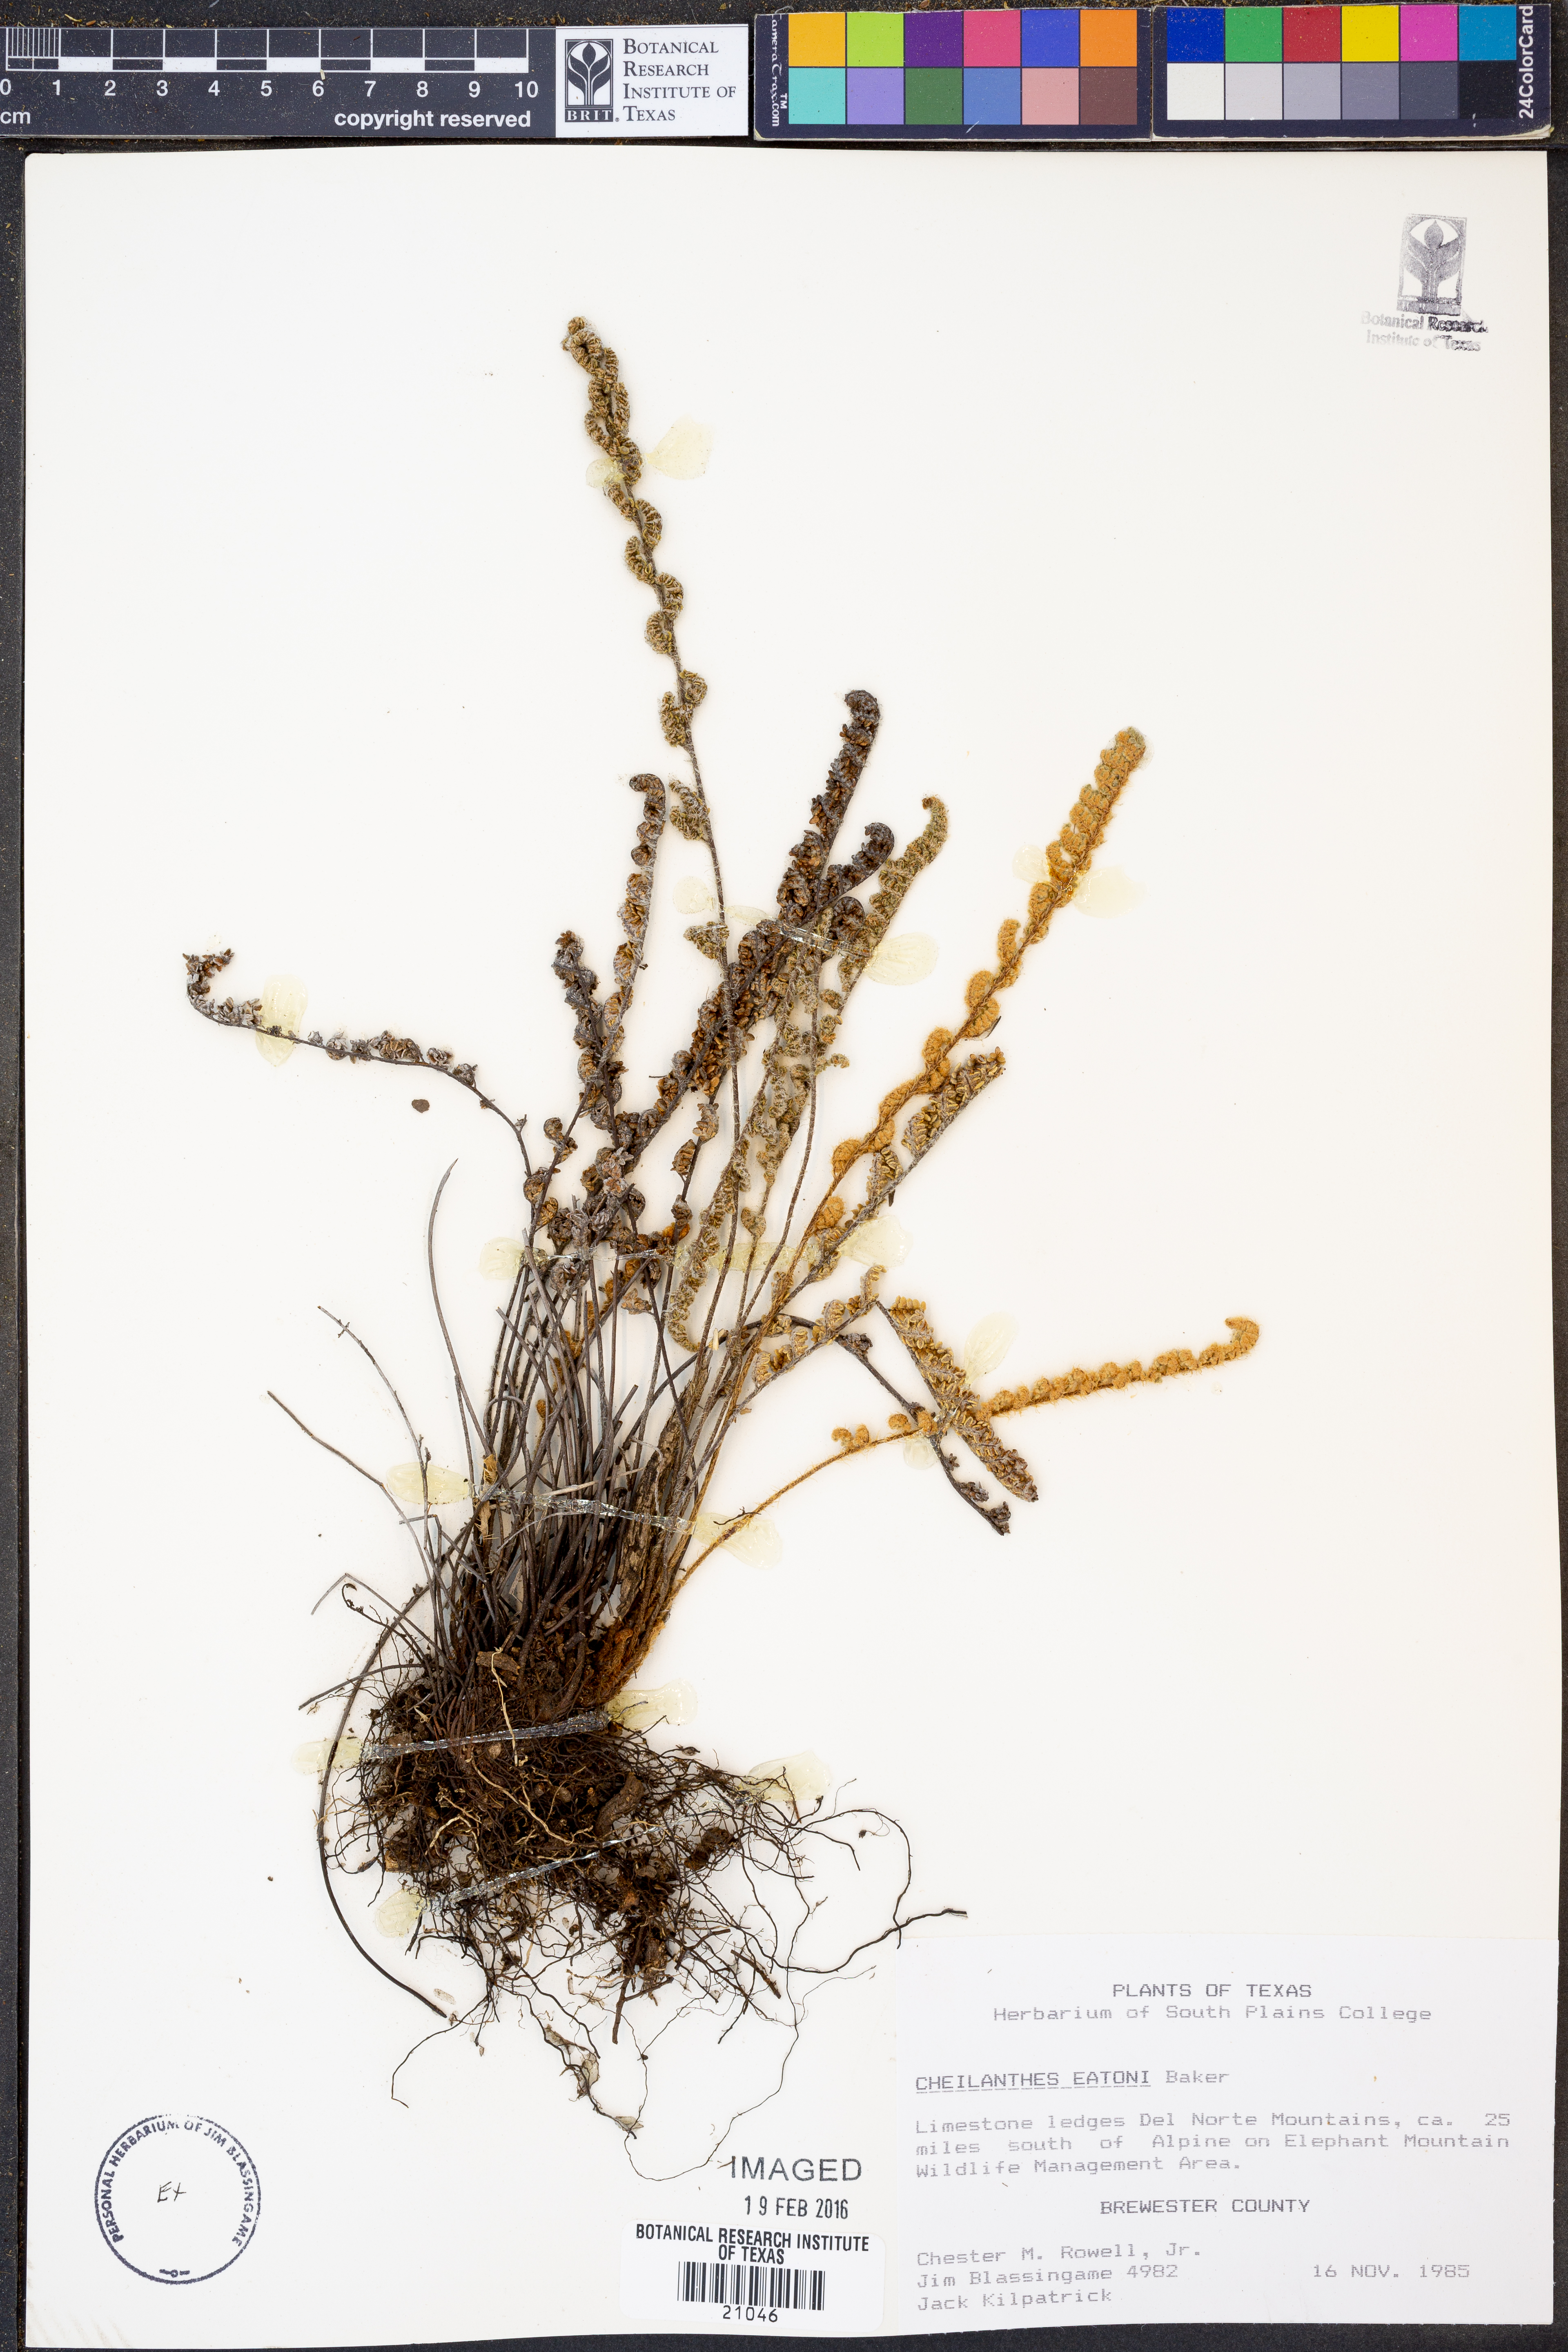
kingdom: Plantae
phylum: Tracheophyta
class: Polypodiopsida
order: Polypodiales
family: Pteridaceae
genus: Myriopteris
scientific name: Myriopteris rufa
